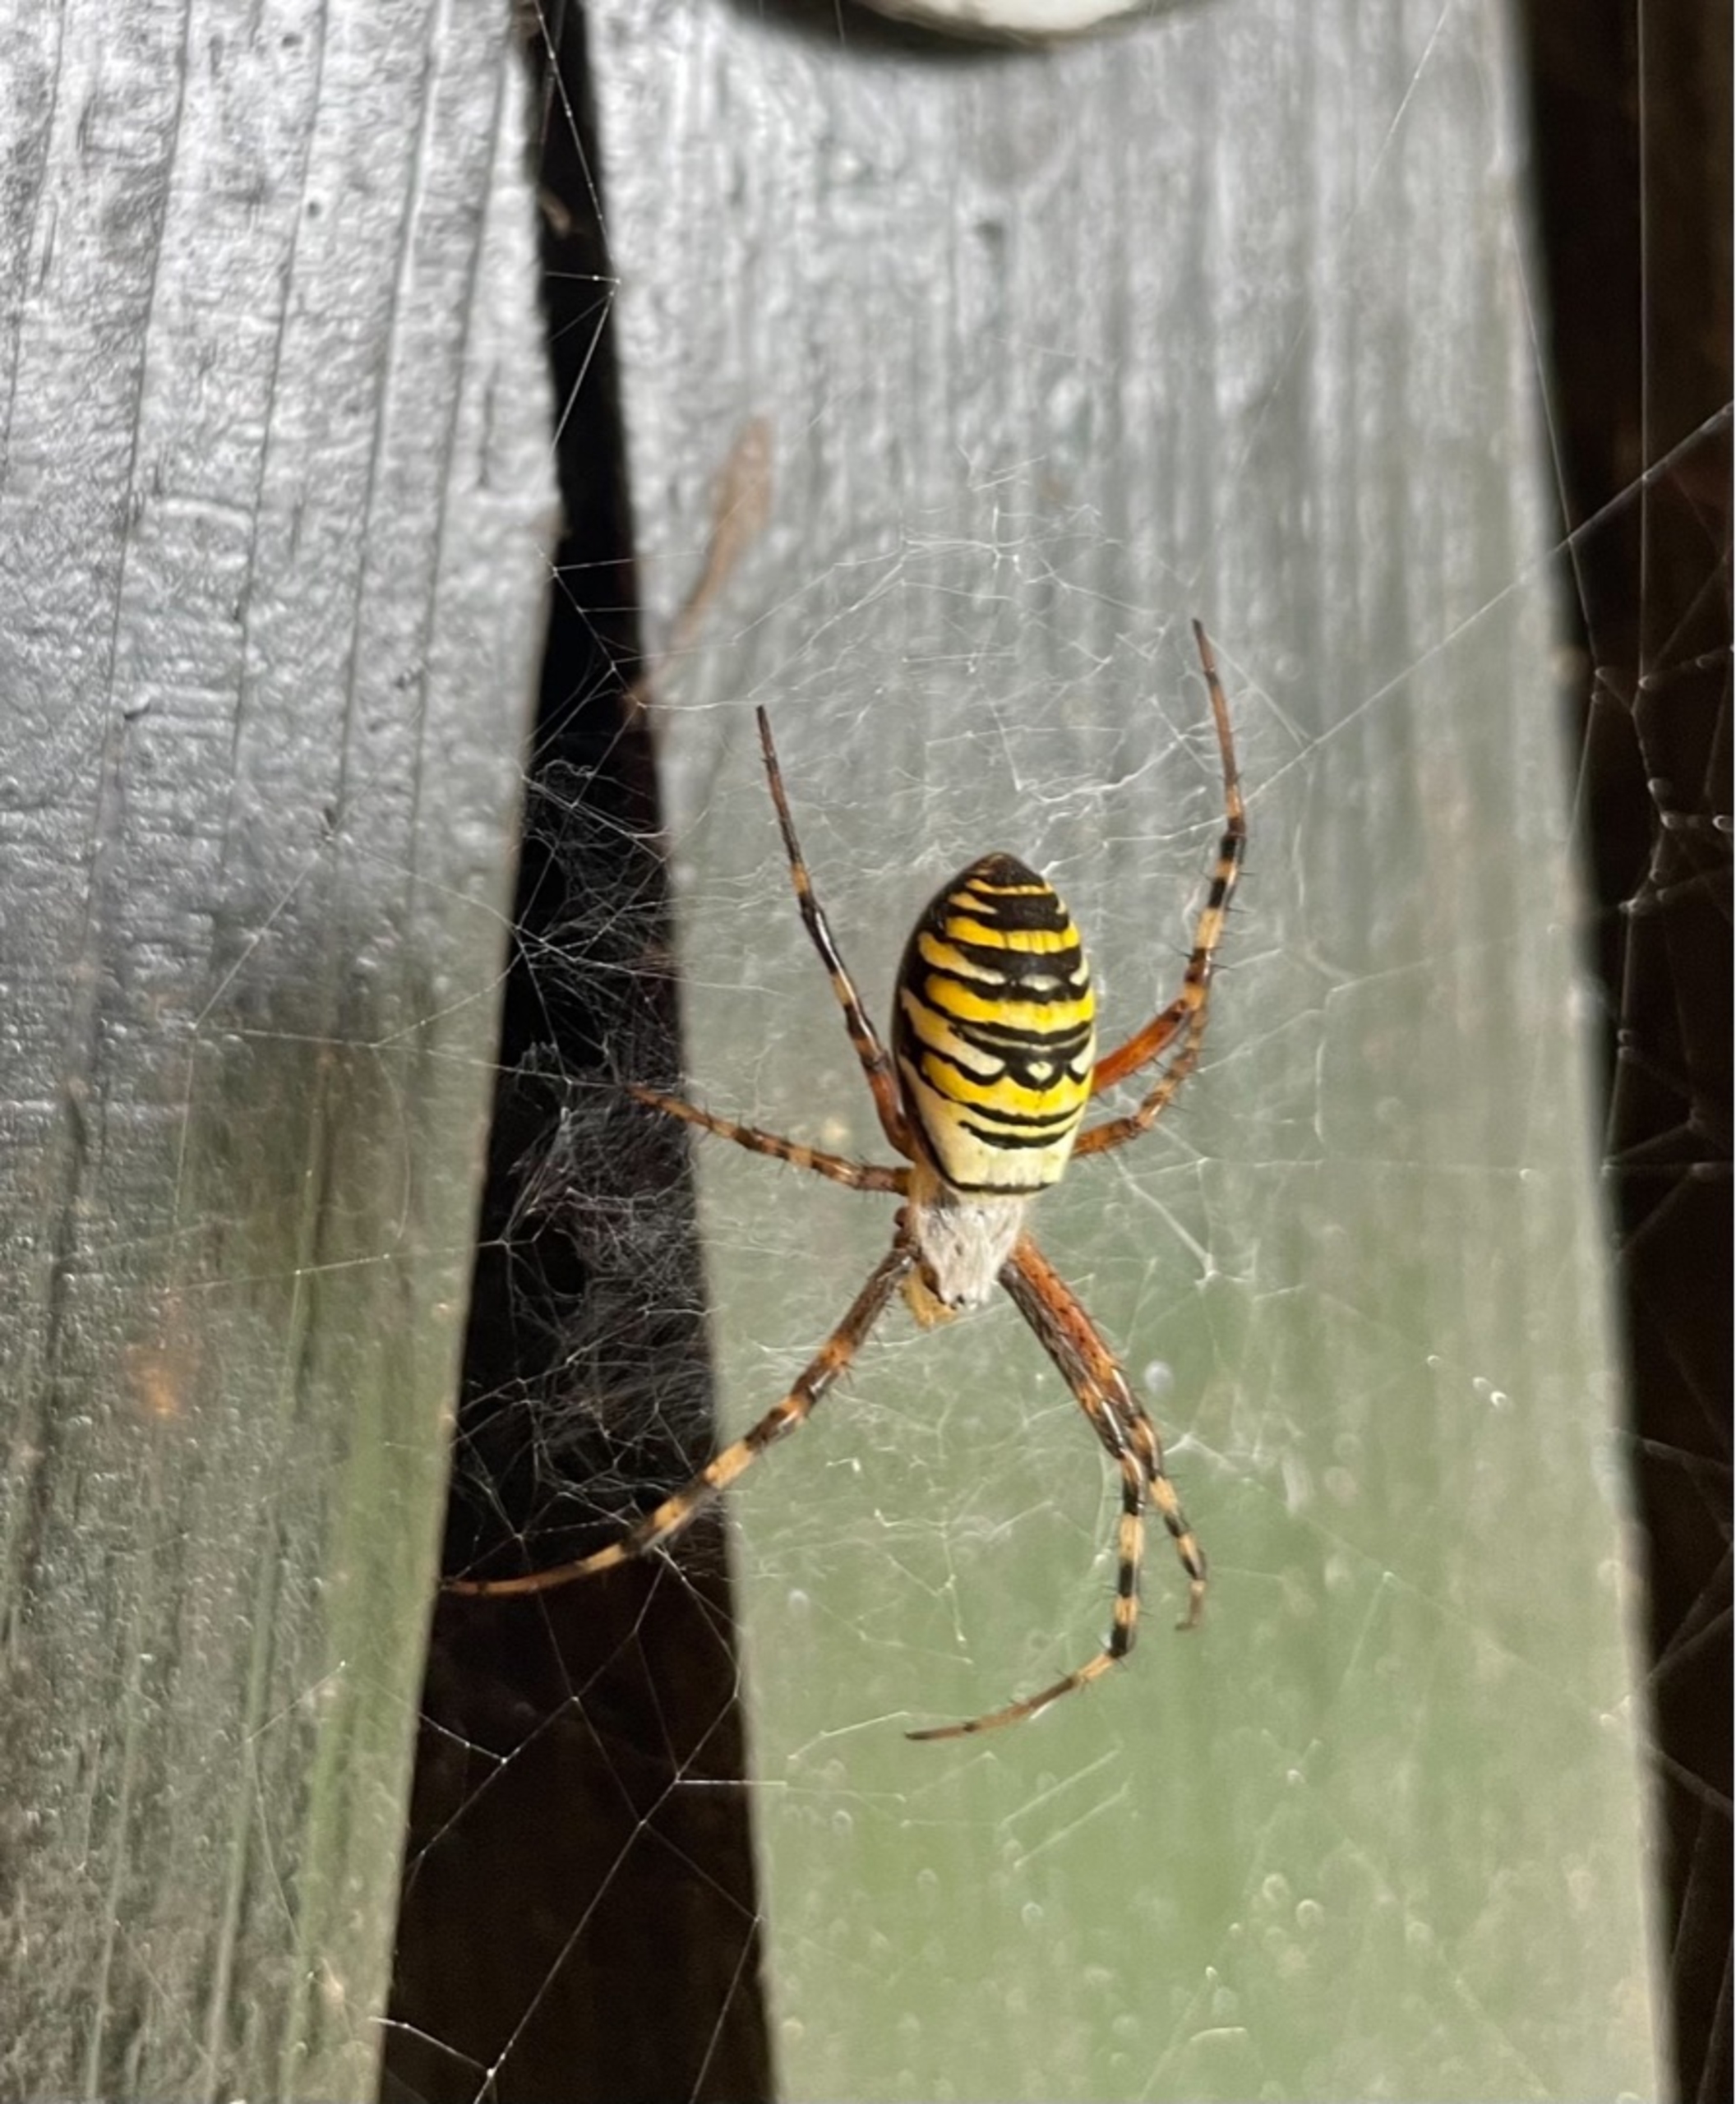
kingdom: Animalia
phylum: Arthropoda
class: Arachnida
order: Araneae
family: Araneidae
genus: Argiope
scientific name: Argiope bruennichi
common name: Hvepseedderkop
